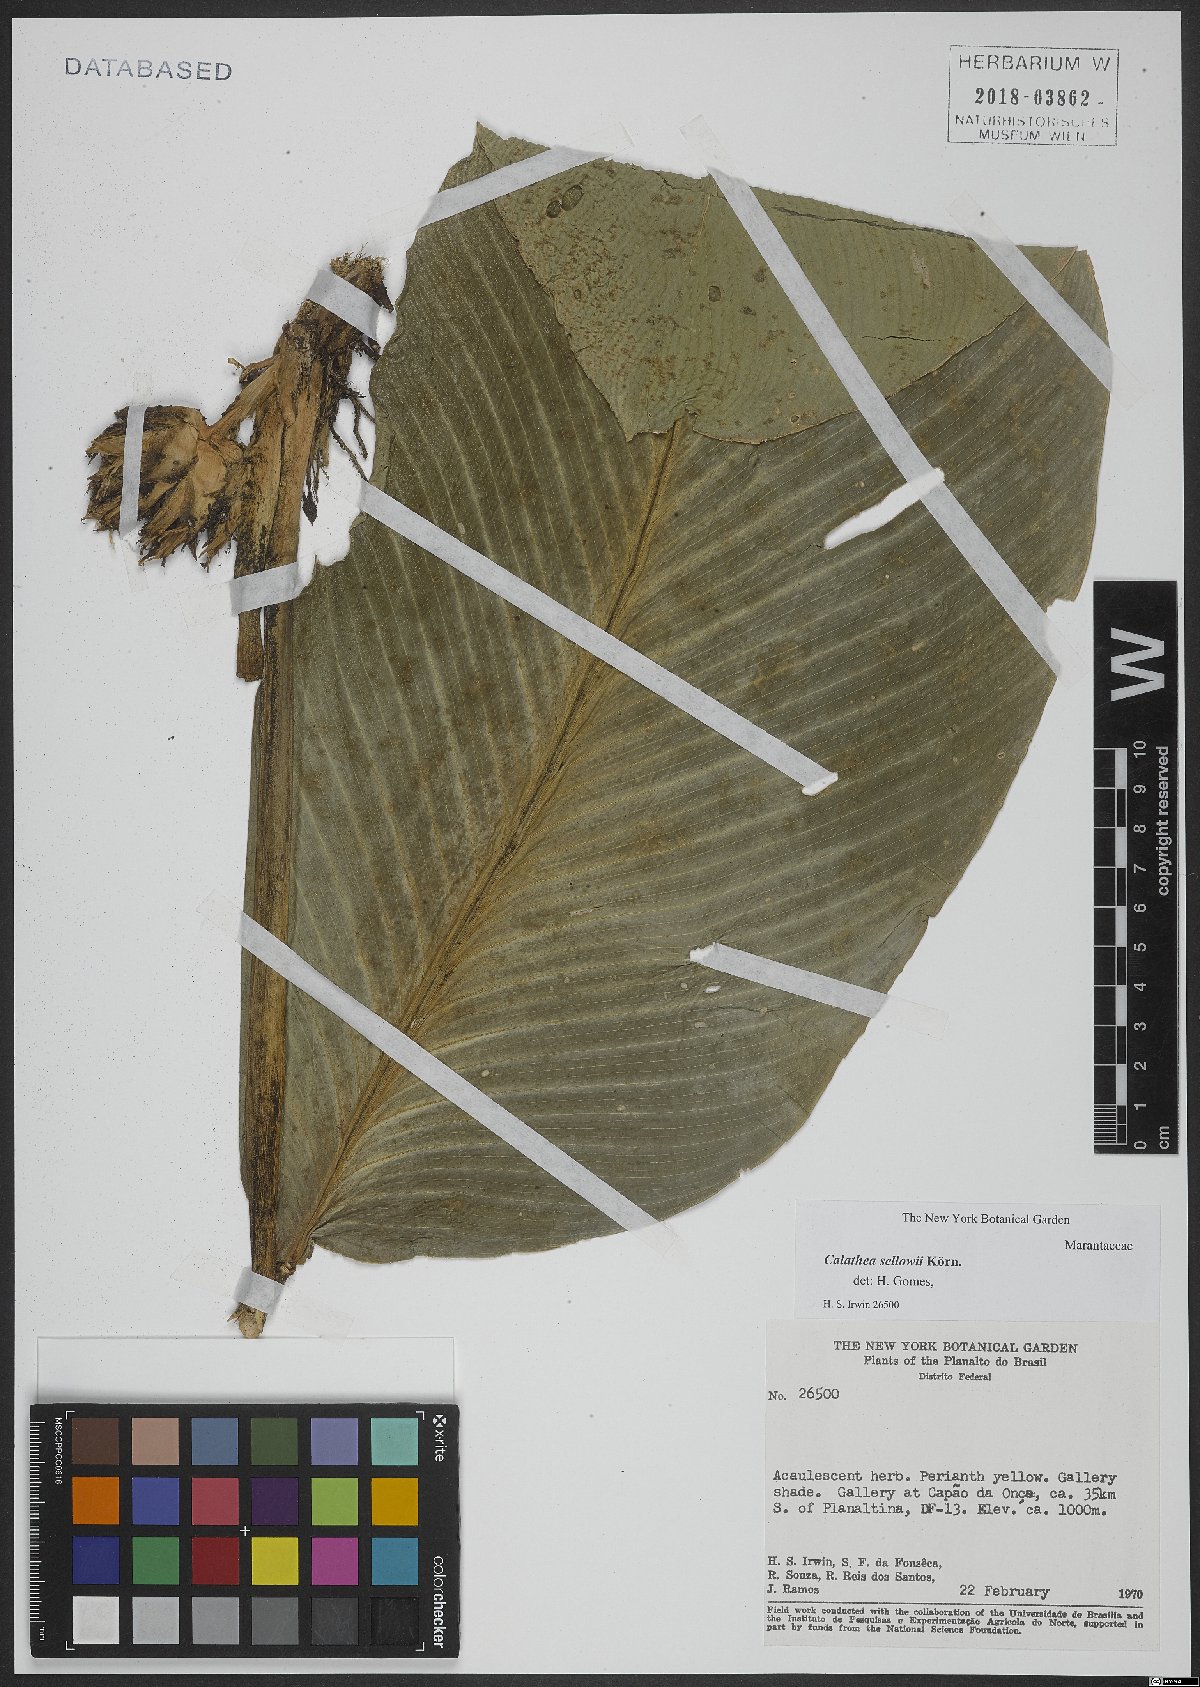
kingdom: Plantae
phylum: Tracheophyta
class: Liliopsida
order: Zingiberales
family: Marantaceae
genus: Goeppertia
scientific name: Goeppertia sellowii
